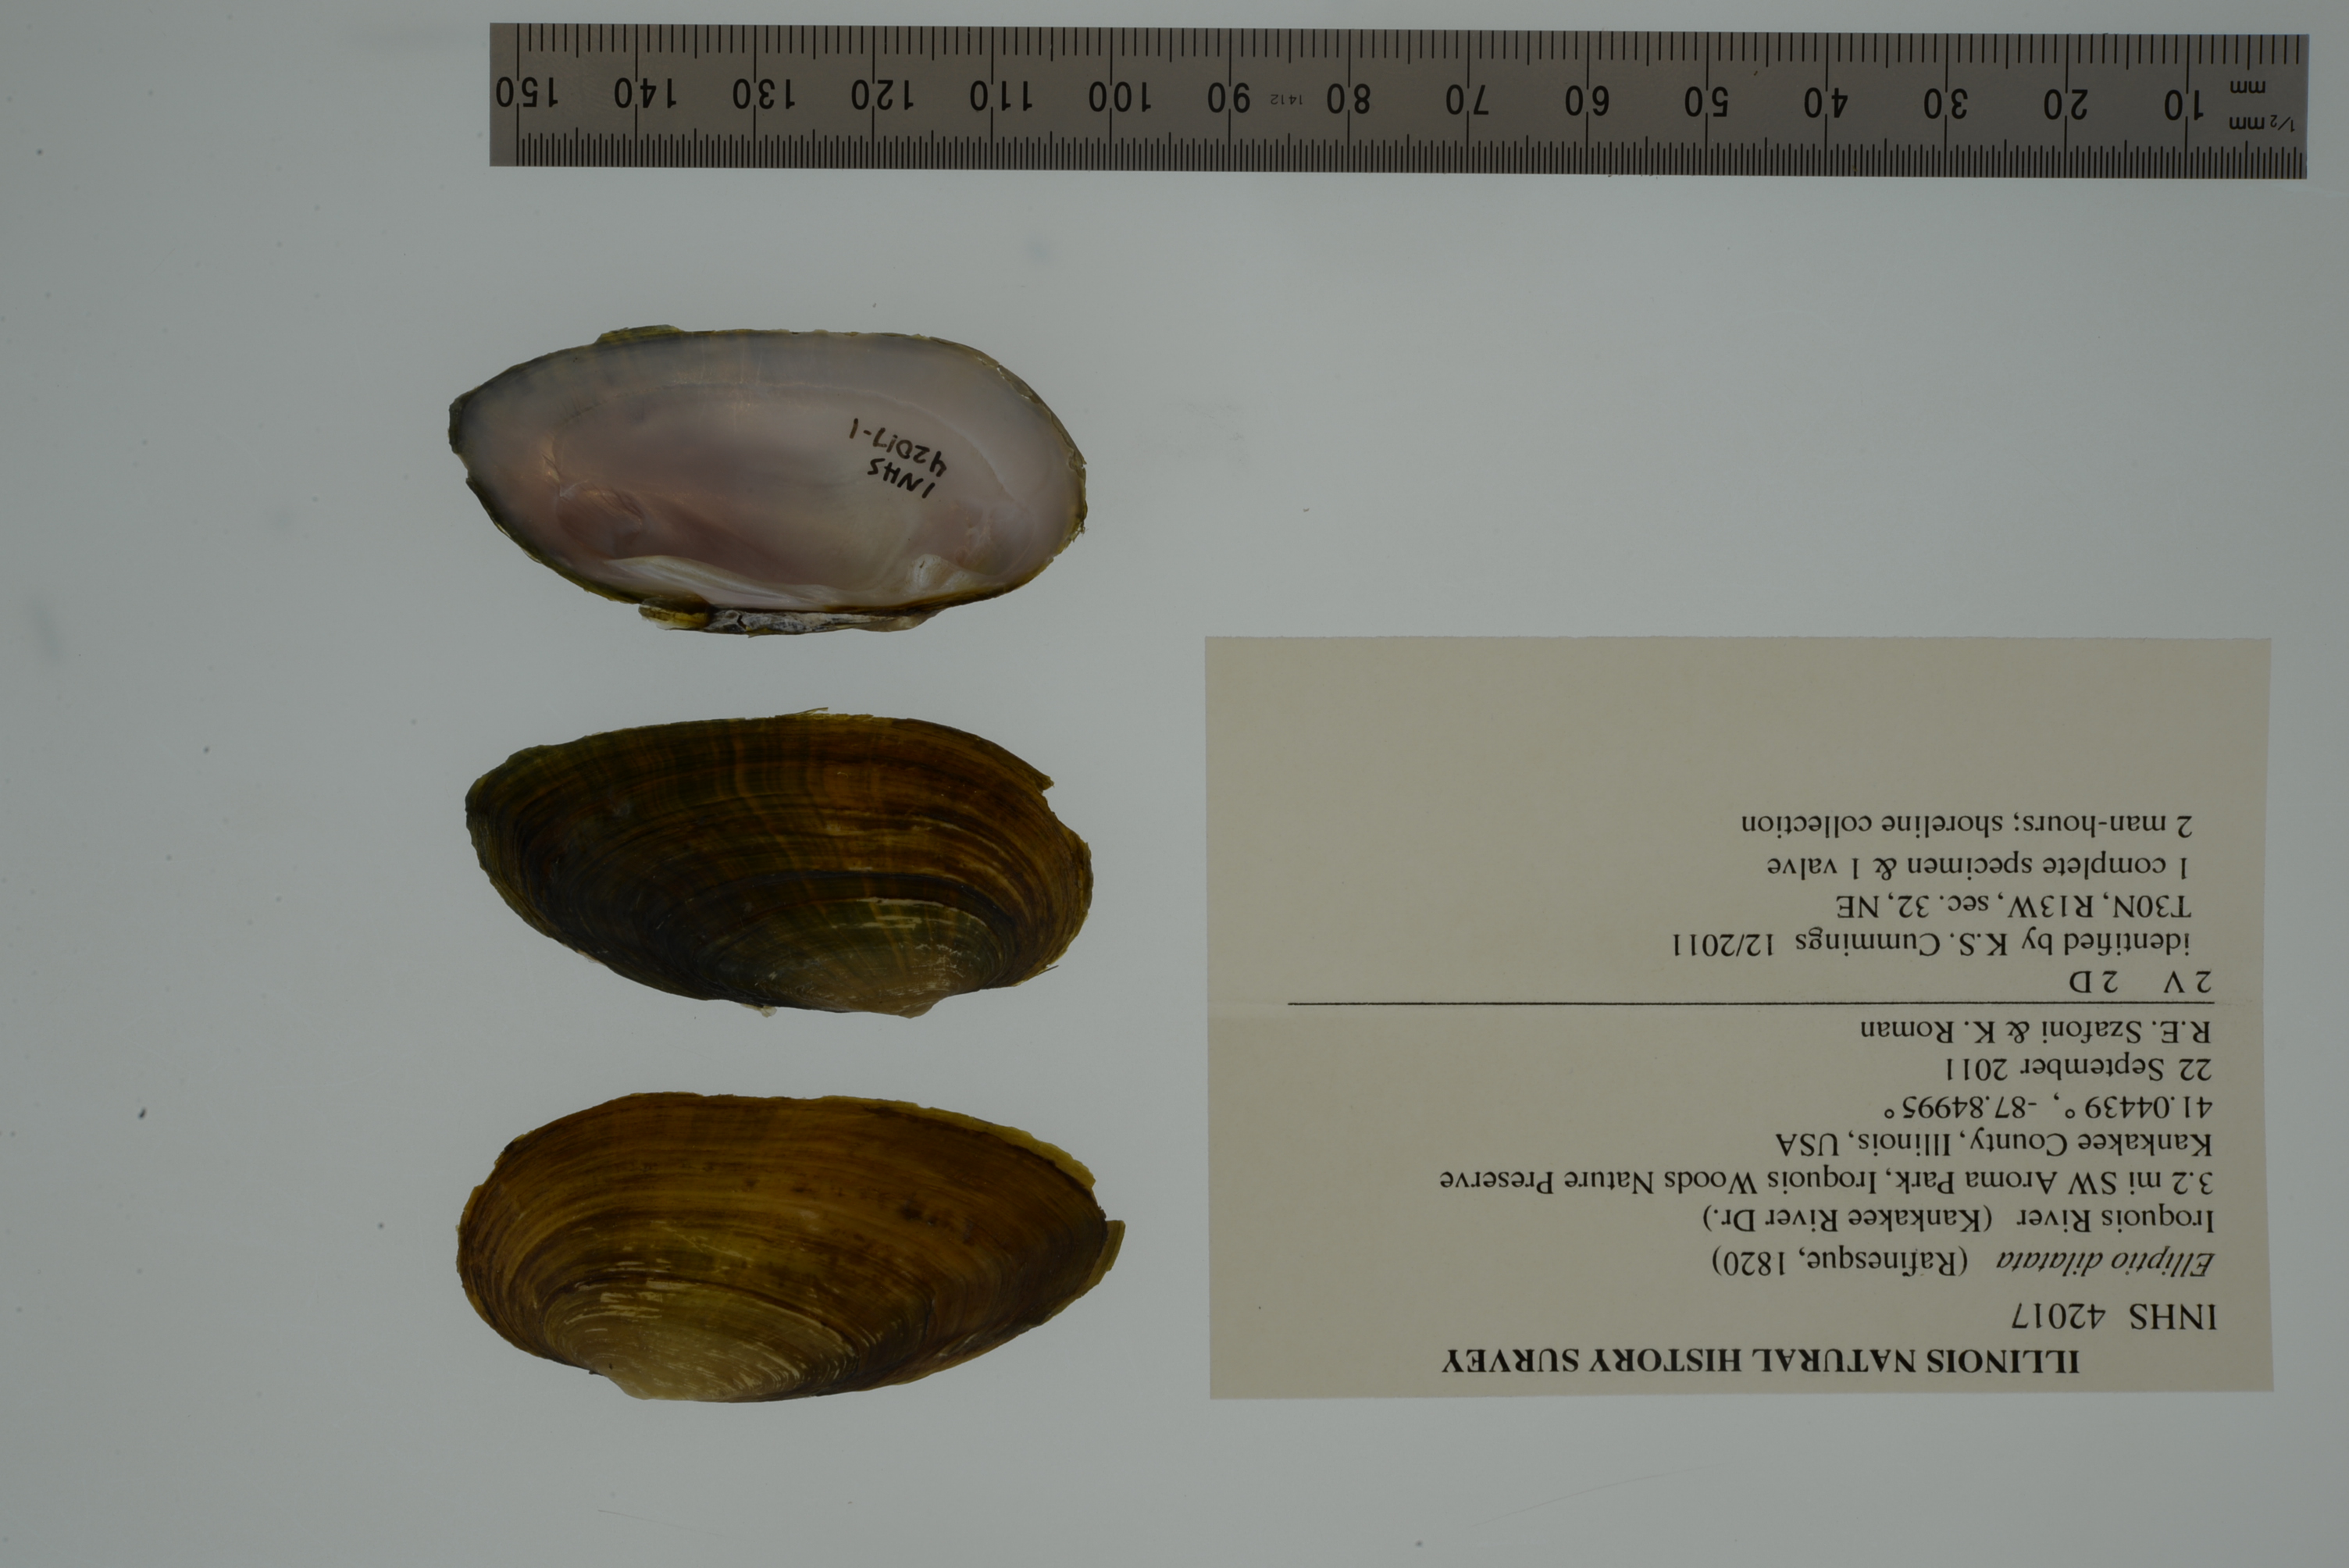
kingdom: Animalia
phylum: Mollusca
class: Bivalvia
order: Unionida
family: Unionidae
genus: Eurynia
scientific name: Eurynia dilatata
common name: Spike
